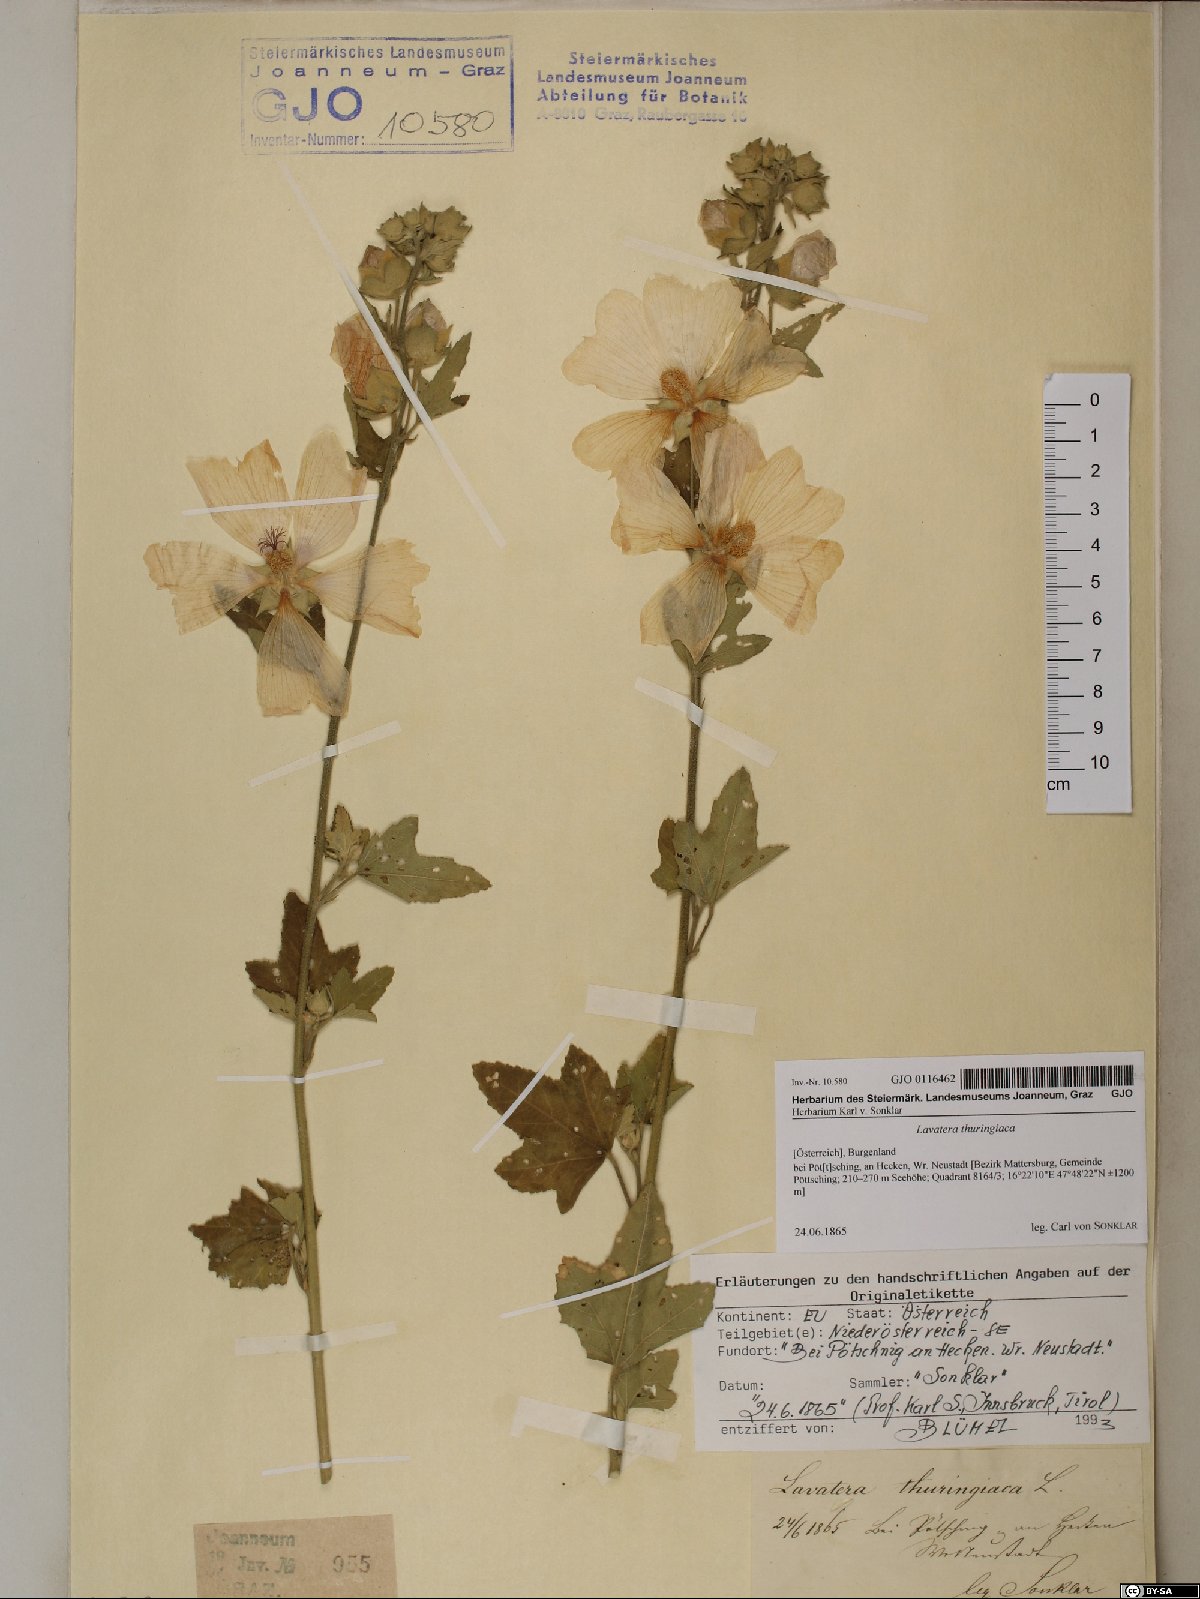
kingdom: Plantae
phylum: Tracheophyta
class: Magnoliopsida
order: Malvales
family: Malvaceae
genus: Malva
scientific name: Malva thuringiaca
